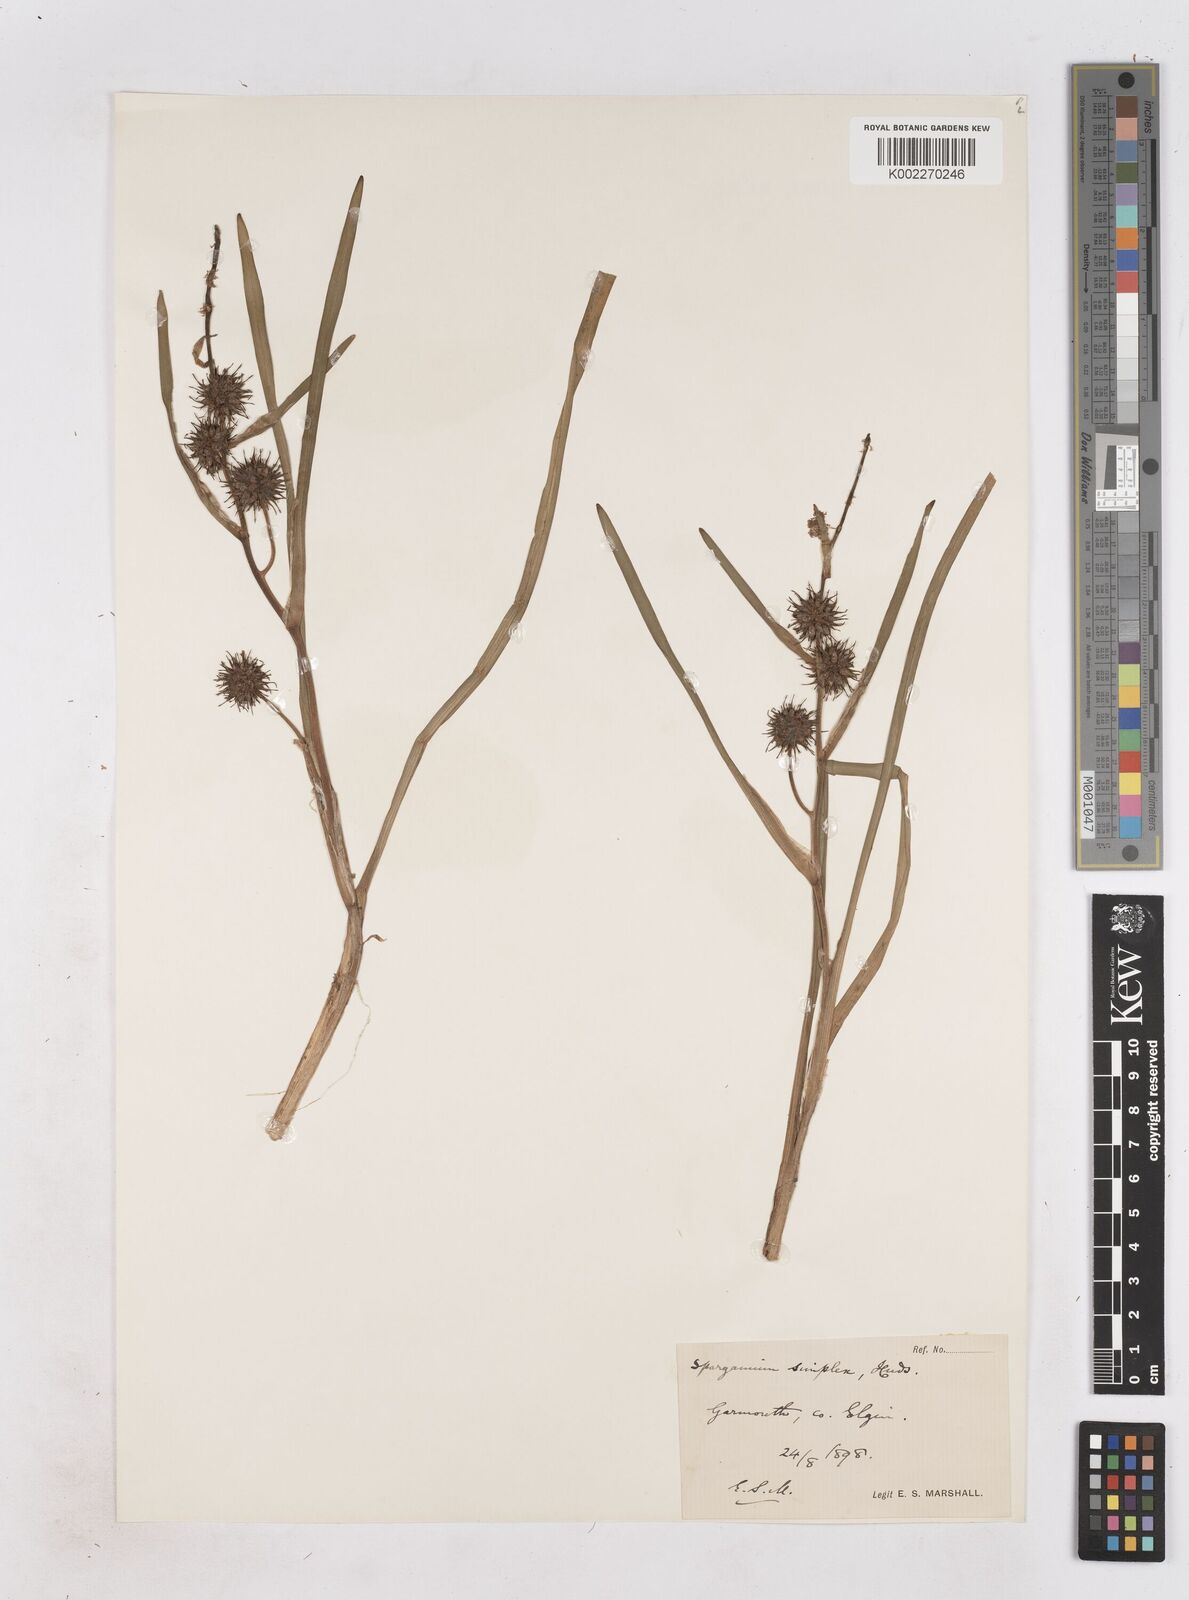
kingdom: Plantae
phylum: Tracheophyta
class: Liliopsida
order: Poales
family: Typhaceae
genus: Sparganium
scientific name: Sparganium emersum
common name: Unbranched bur-reed
